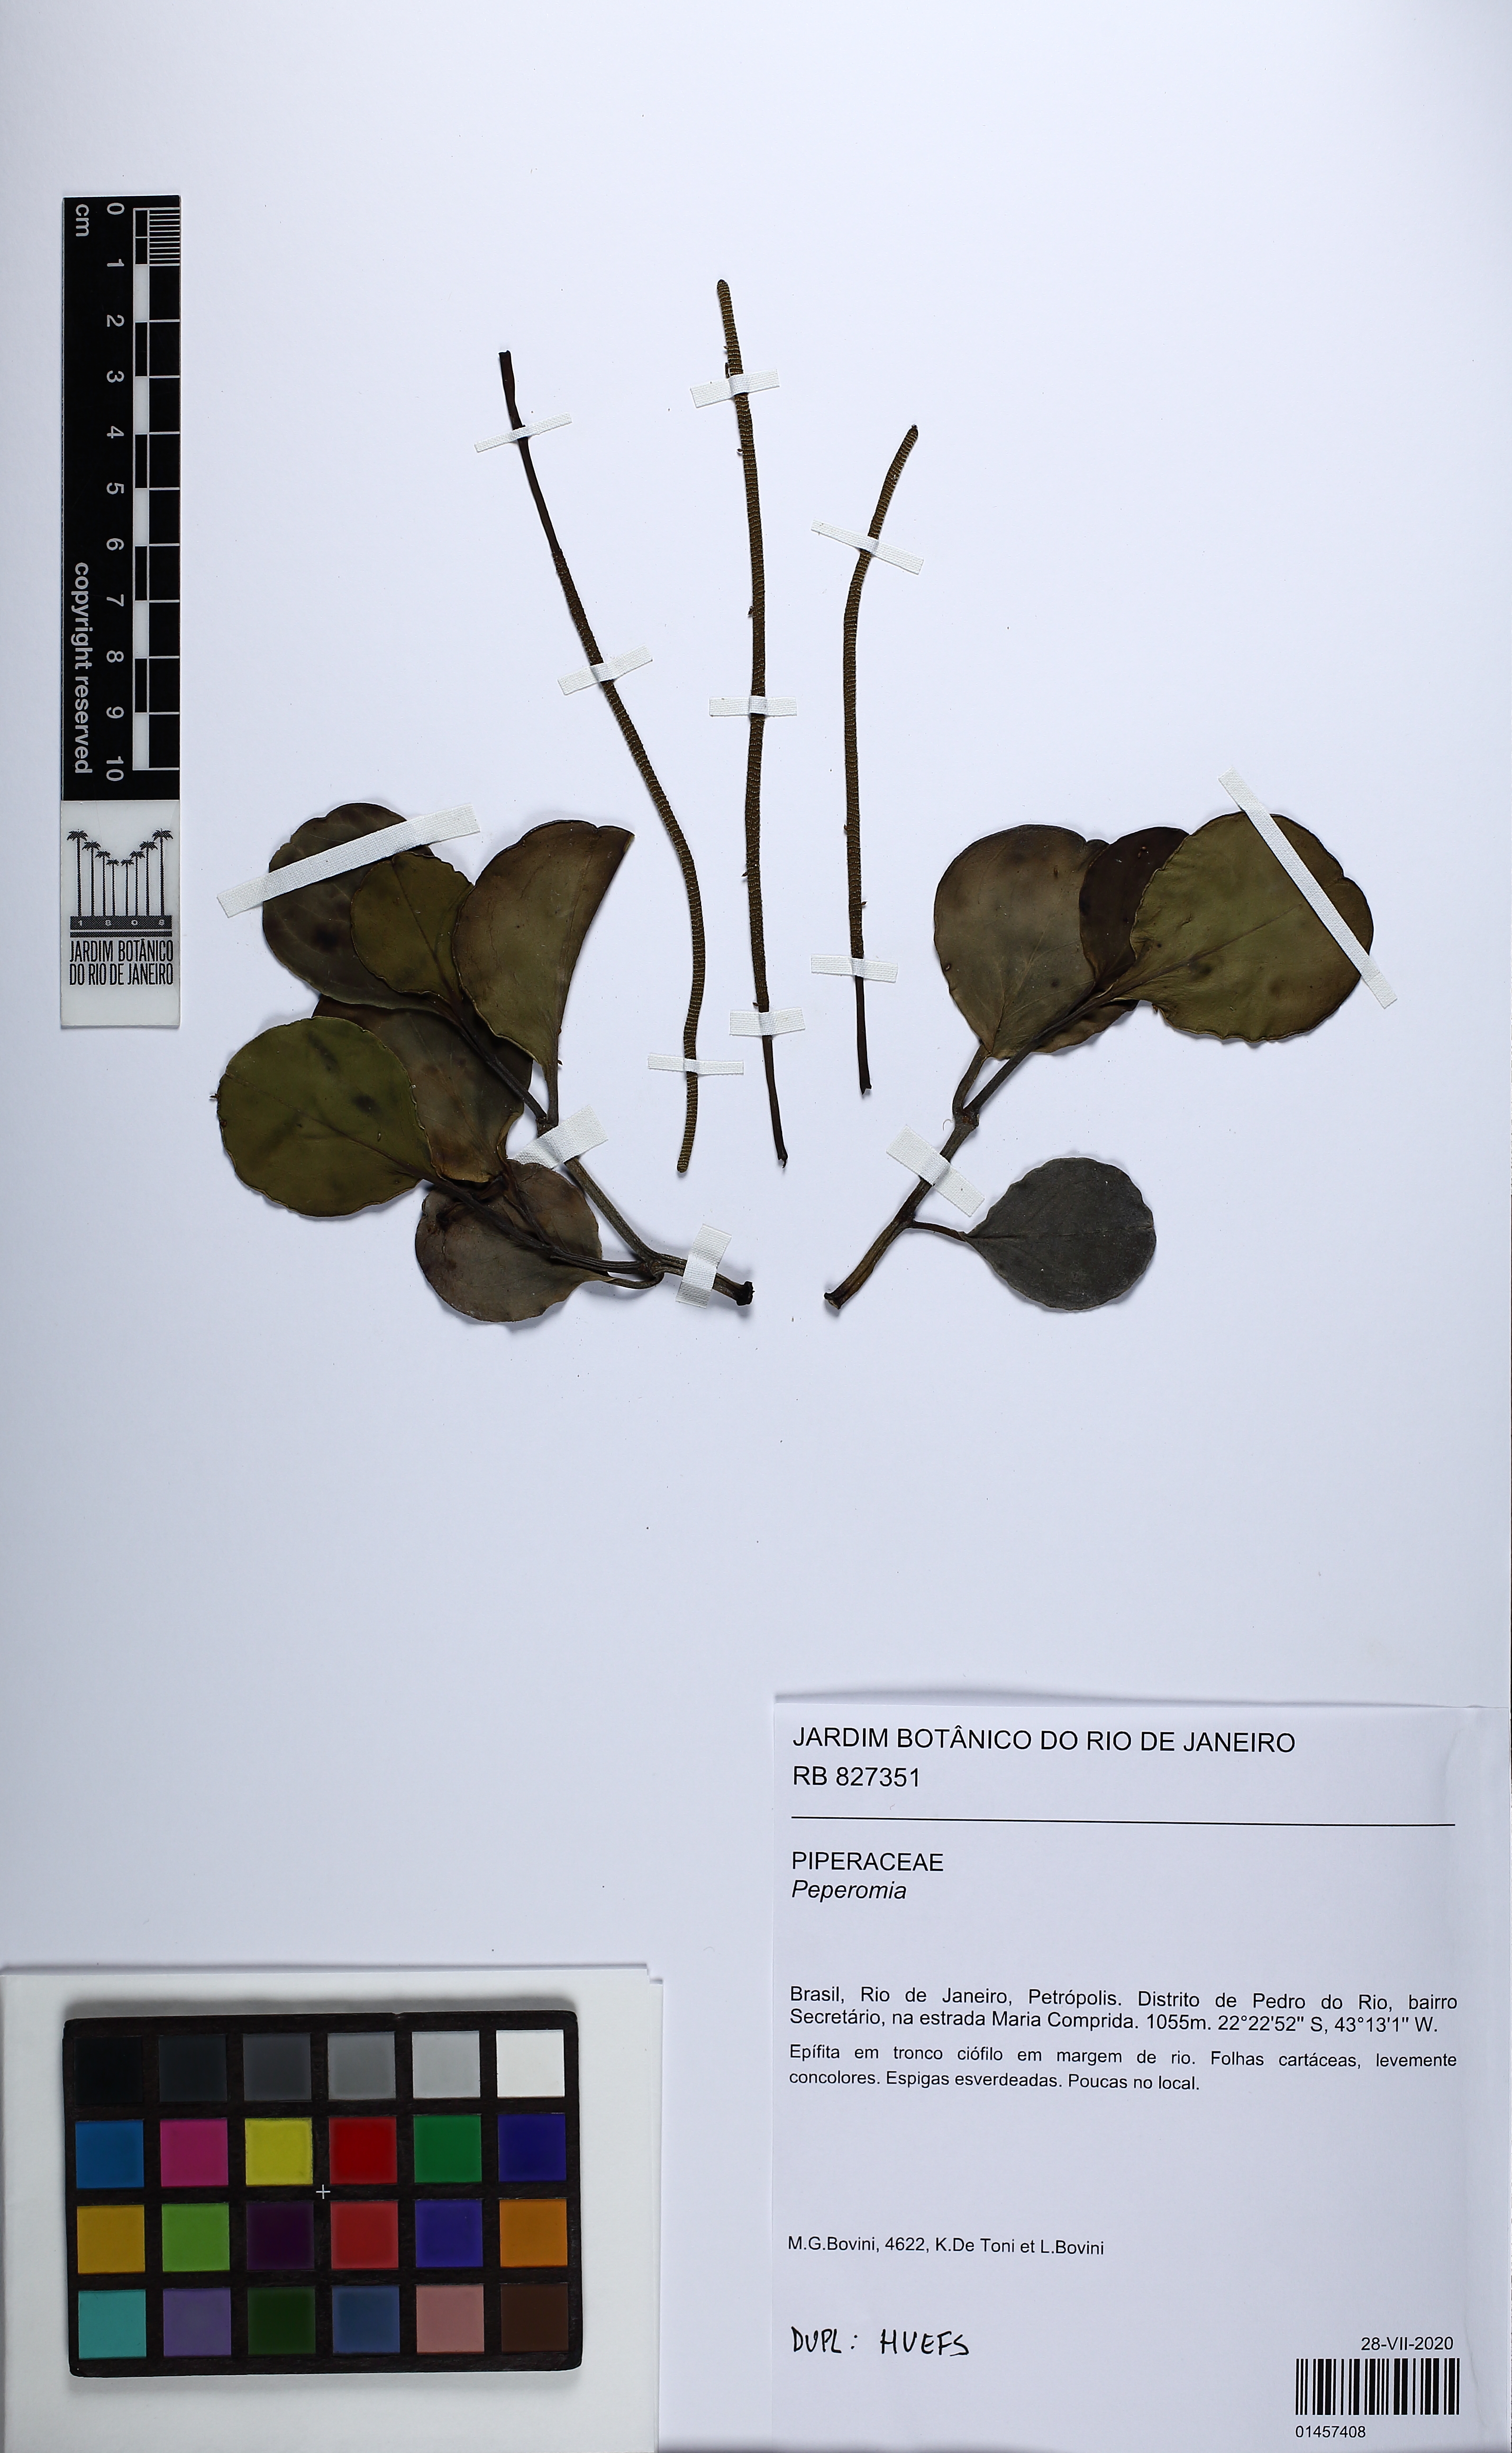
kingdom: Plantae
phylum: Tracheophyta
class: Magnoliopsida
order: Piperales
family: Piperaceae
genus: Peperomia
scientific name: Peperomia obtusifolia
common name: Baby rubberplant
